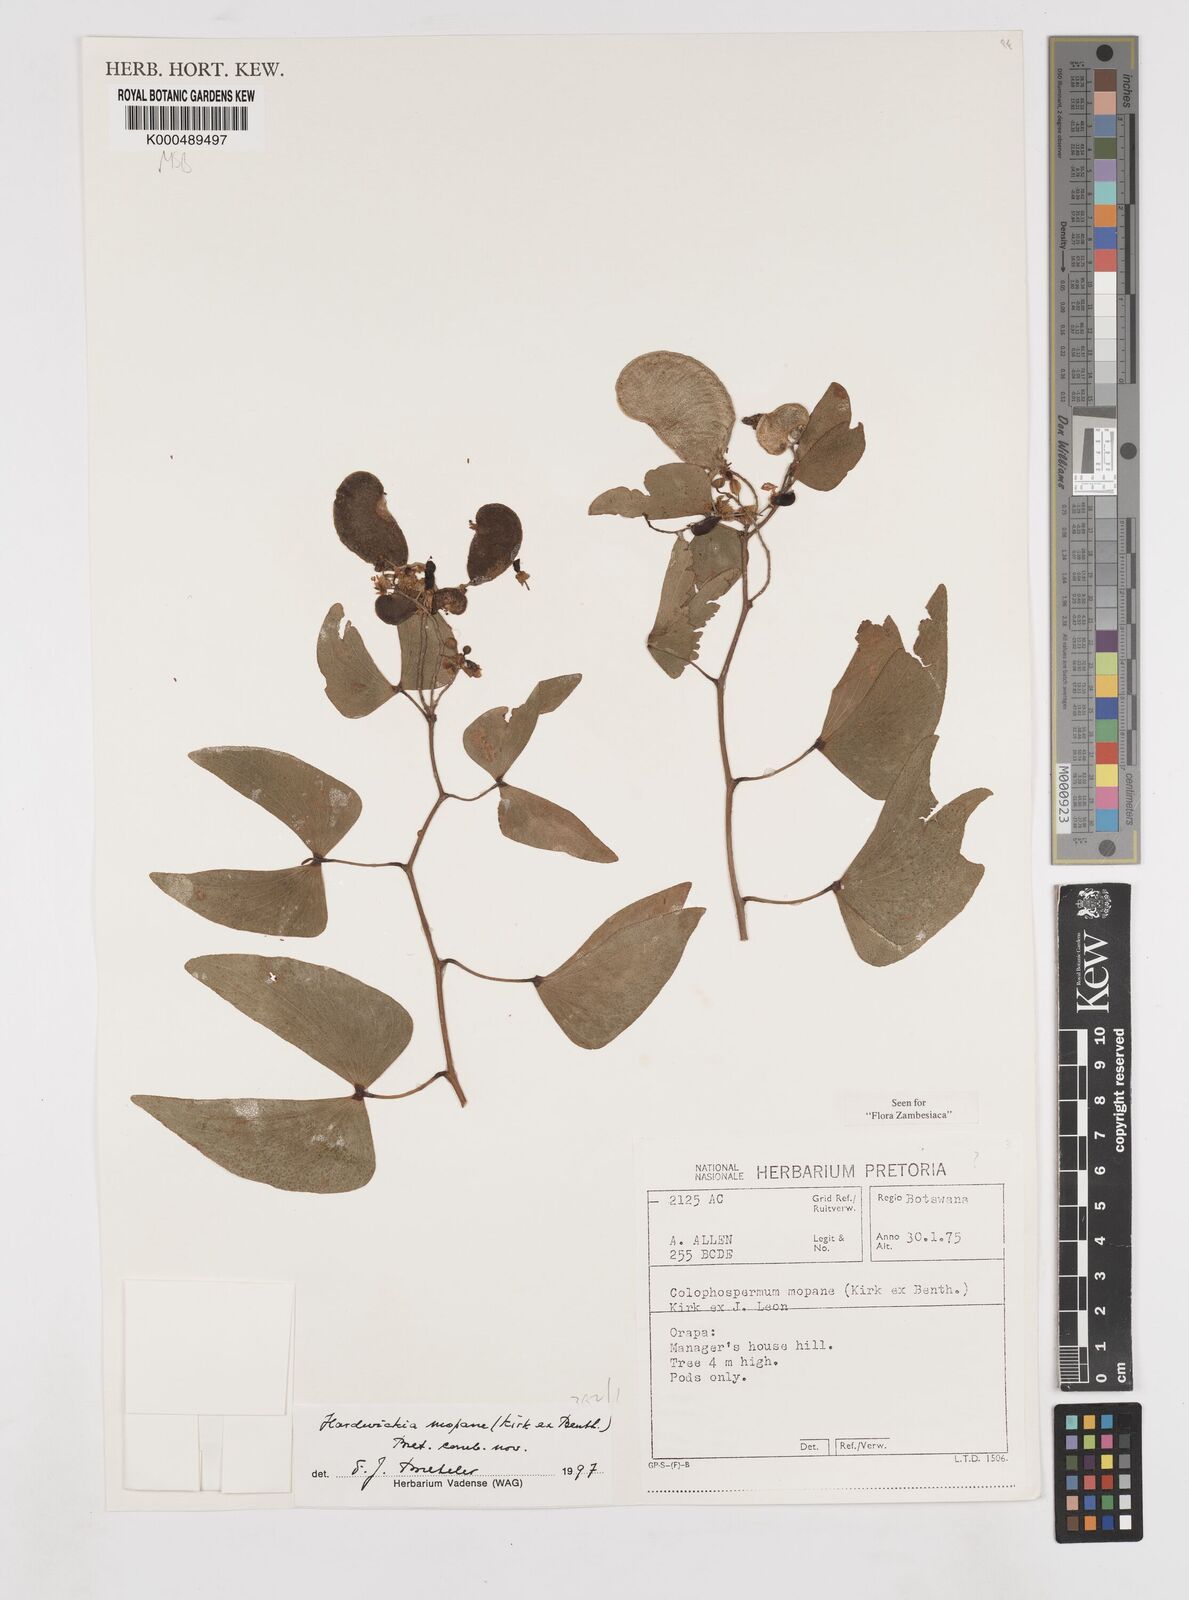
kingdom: Plantae
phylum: Tracheophyta
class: Magnoliopsida
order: Fabales
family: Fabaceae
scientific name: Fabaceae
